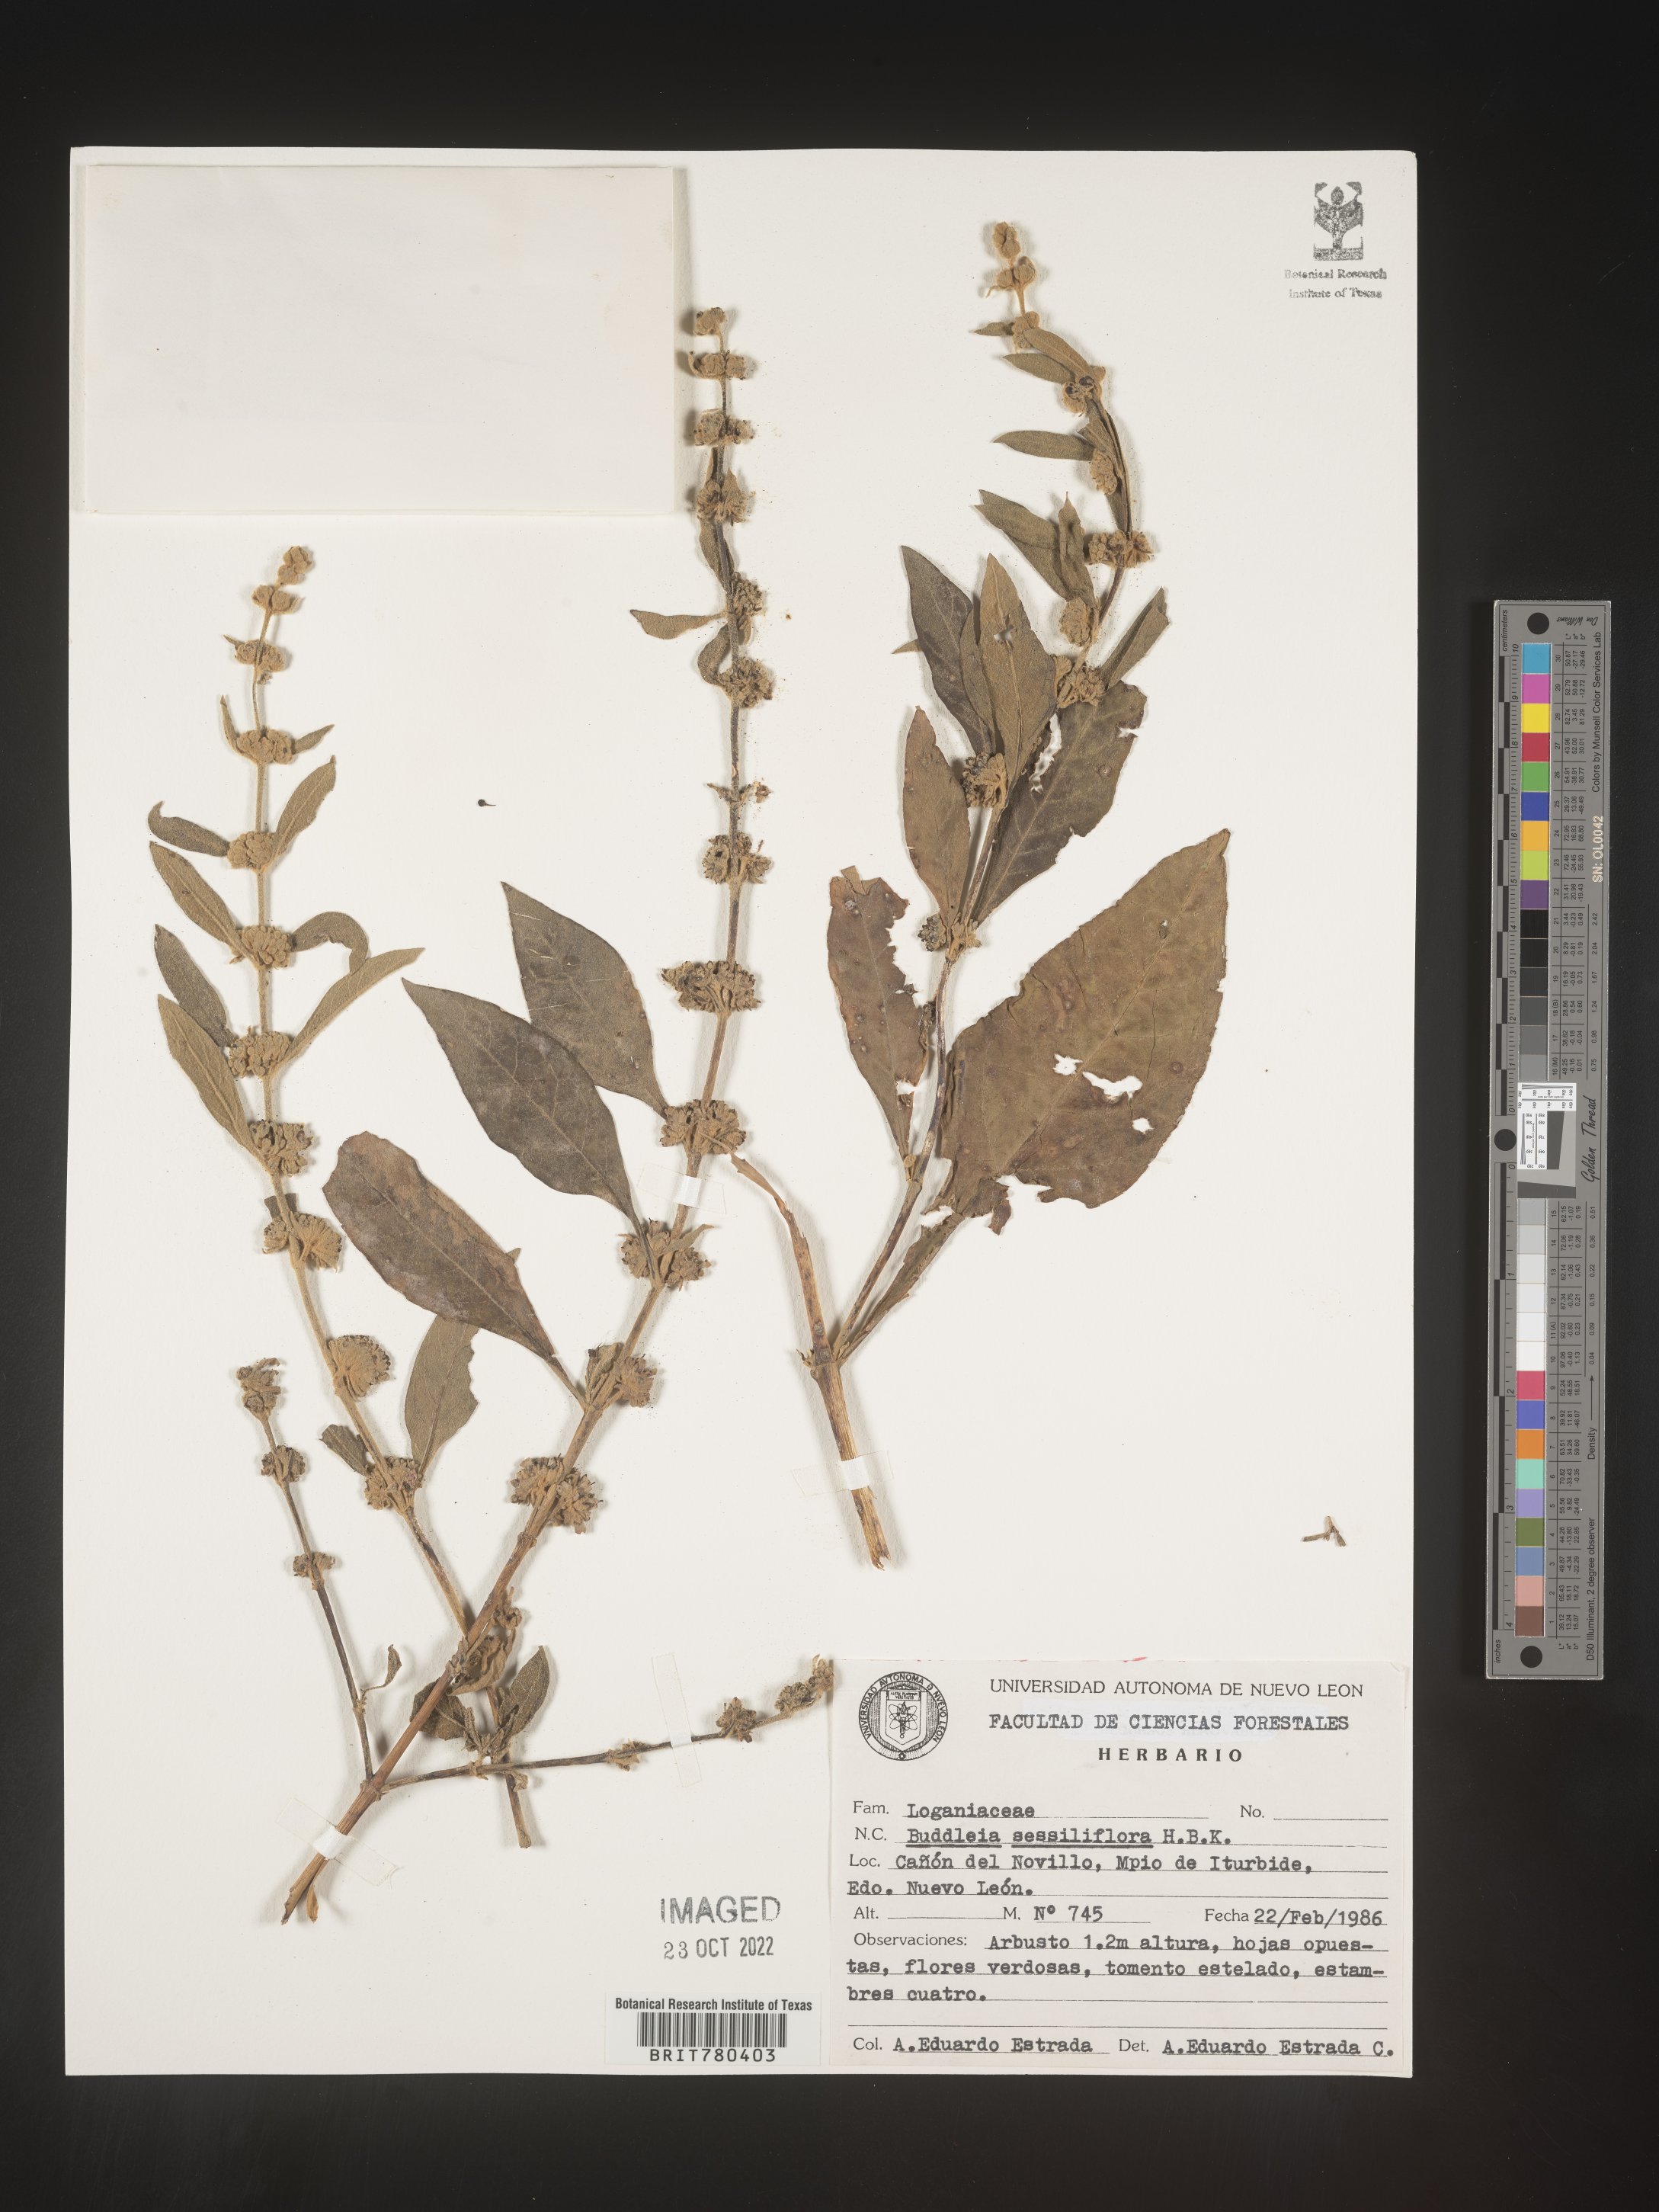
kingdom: Plantae
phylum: Tracheophyta
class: Magnoliopsida
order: Lamiales
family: Scrophulariaceae
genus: Buddleja
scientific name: Buddleja
